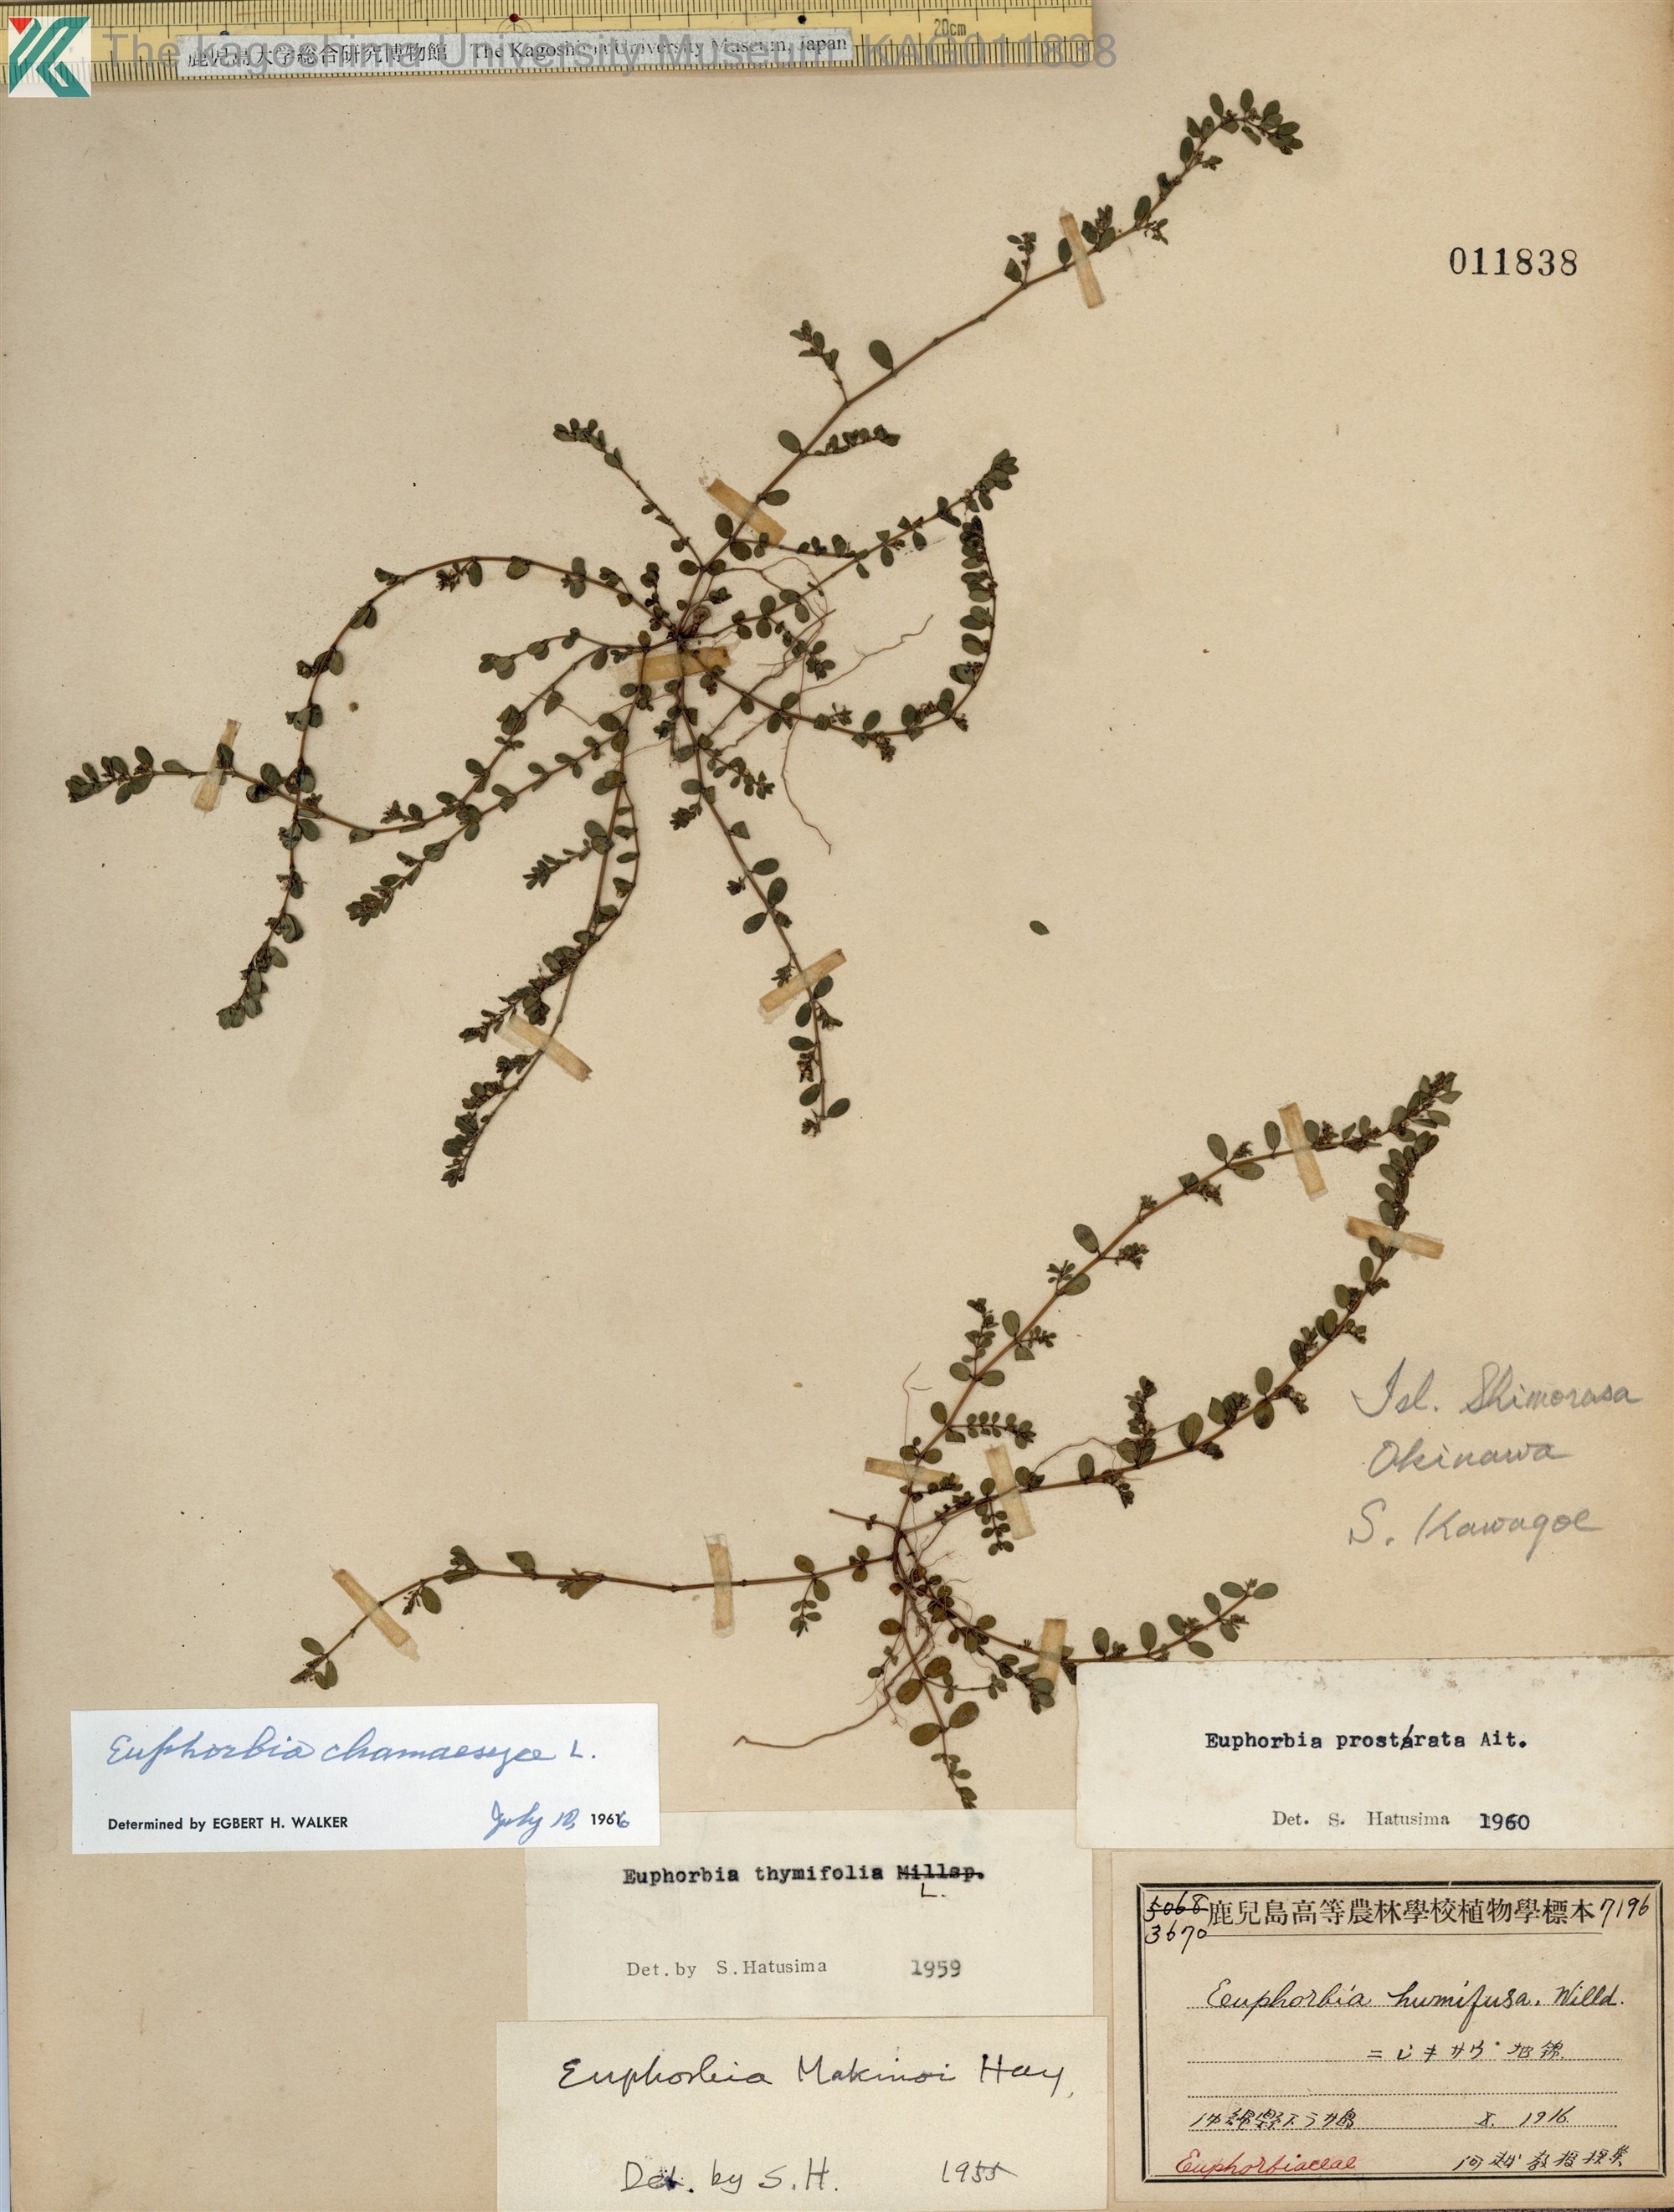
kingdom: Plantae
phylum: Tracheophyta
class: Magnoliopsida
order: Malpighiales
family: Euphorbiaceae
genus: Euphorbia
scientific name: Euphorbia prostrata
